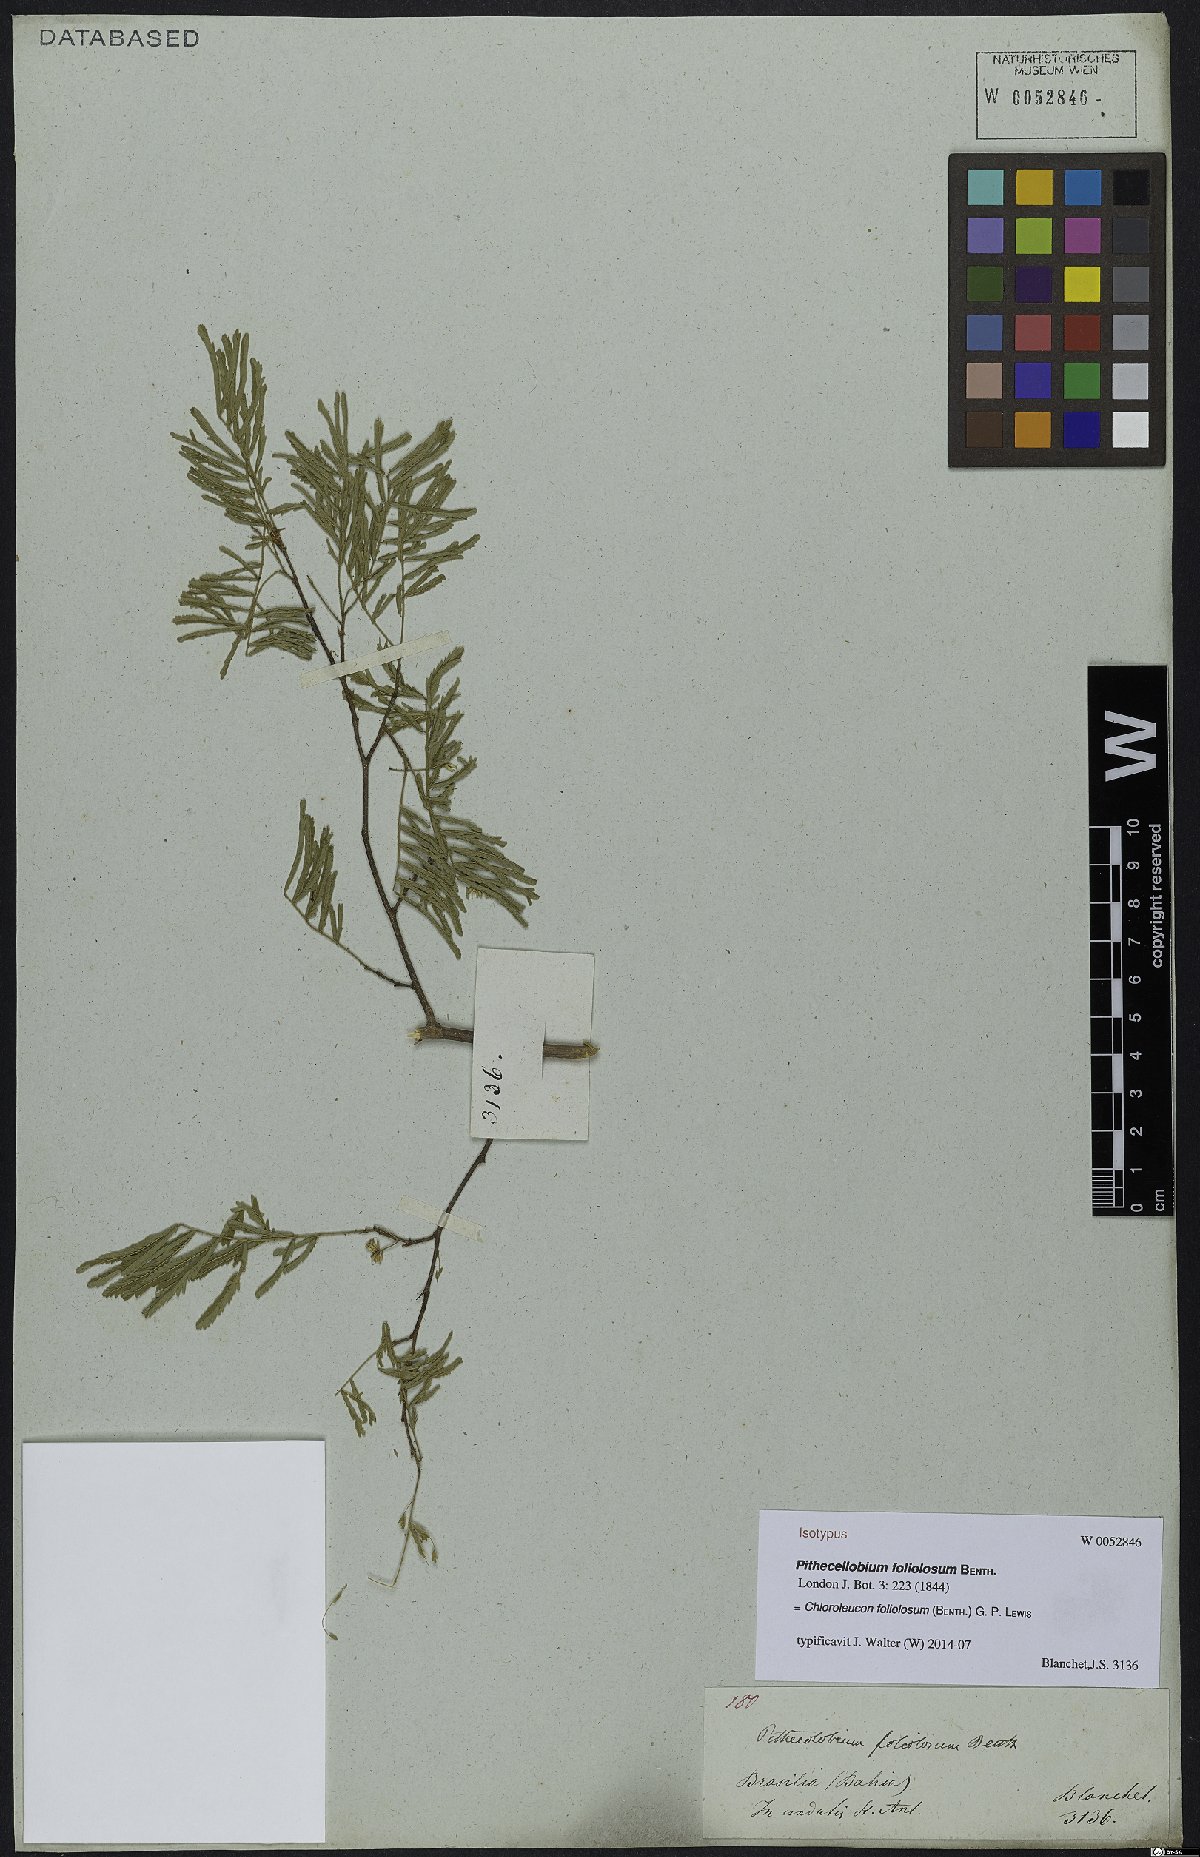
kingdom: Plantae
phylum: Tracheophyta
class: Magnoliopsida
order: Fabales
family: Fabaceae
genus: Chloroleucon
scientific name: Chloroleucon foliolosum
